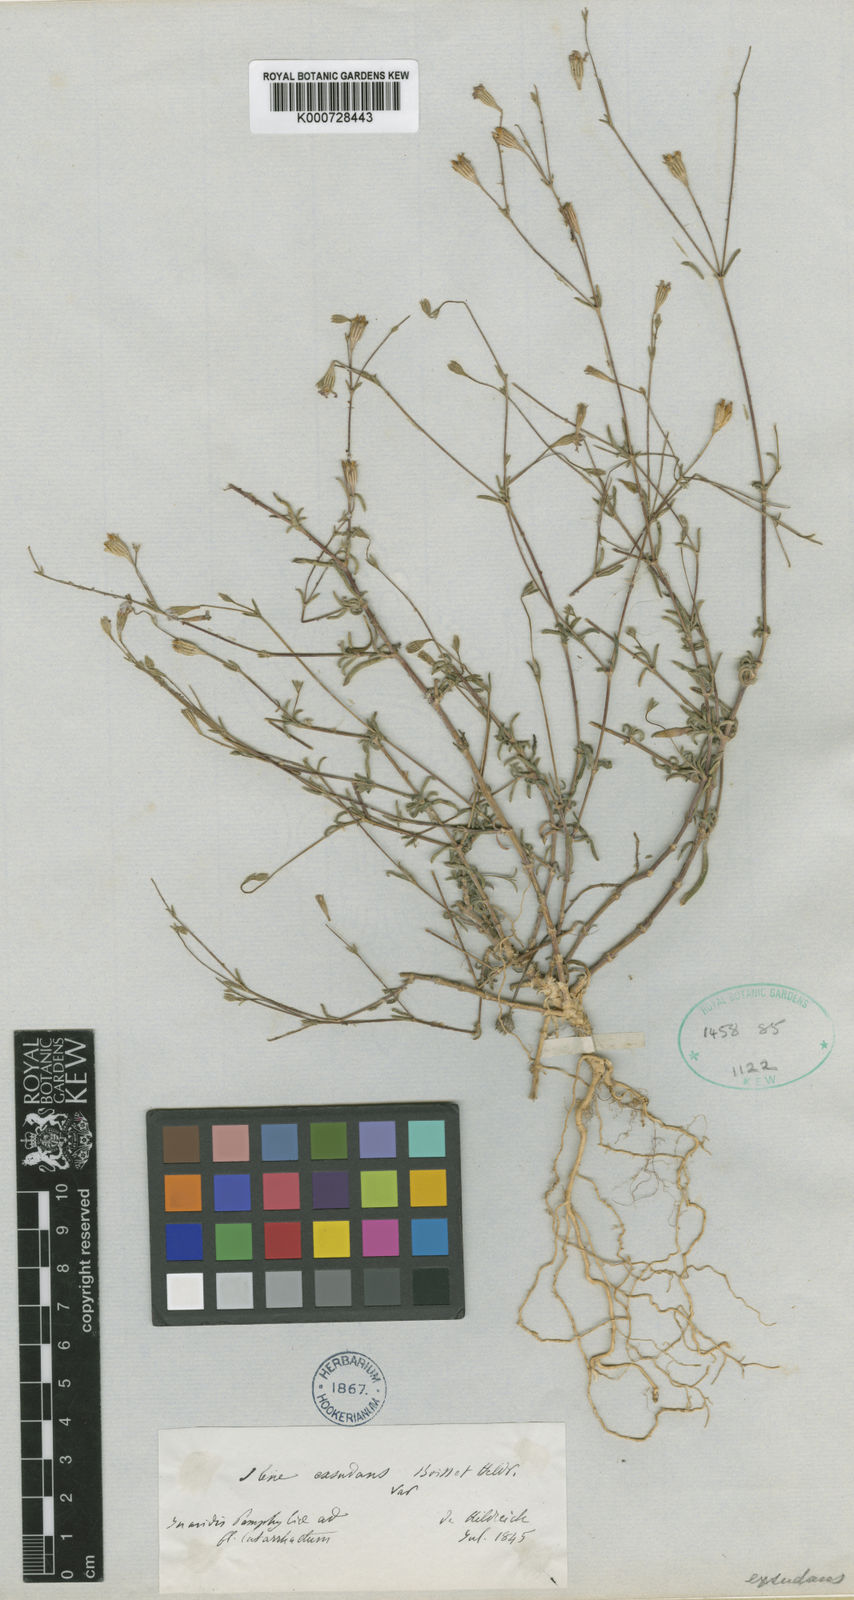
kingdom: Plantae
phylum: Tracheophyta
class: Magnoliopsida
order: Caryophyllales
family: Caryophyllaceae
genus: Silene
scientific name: Silene microsperma
